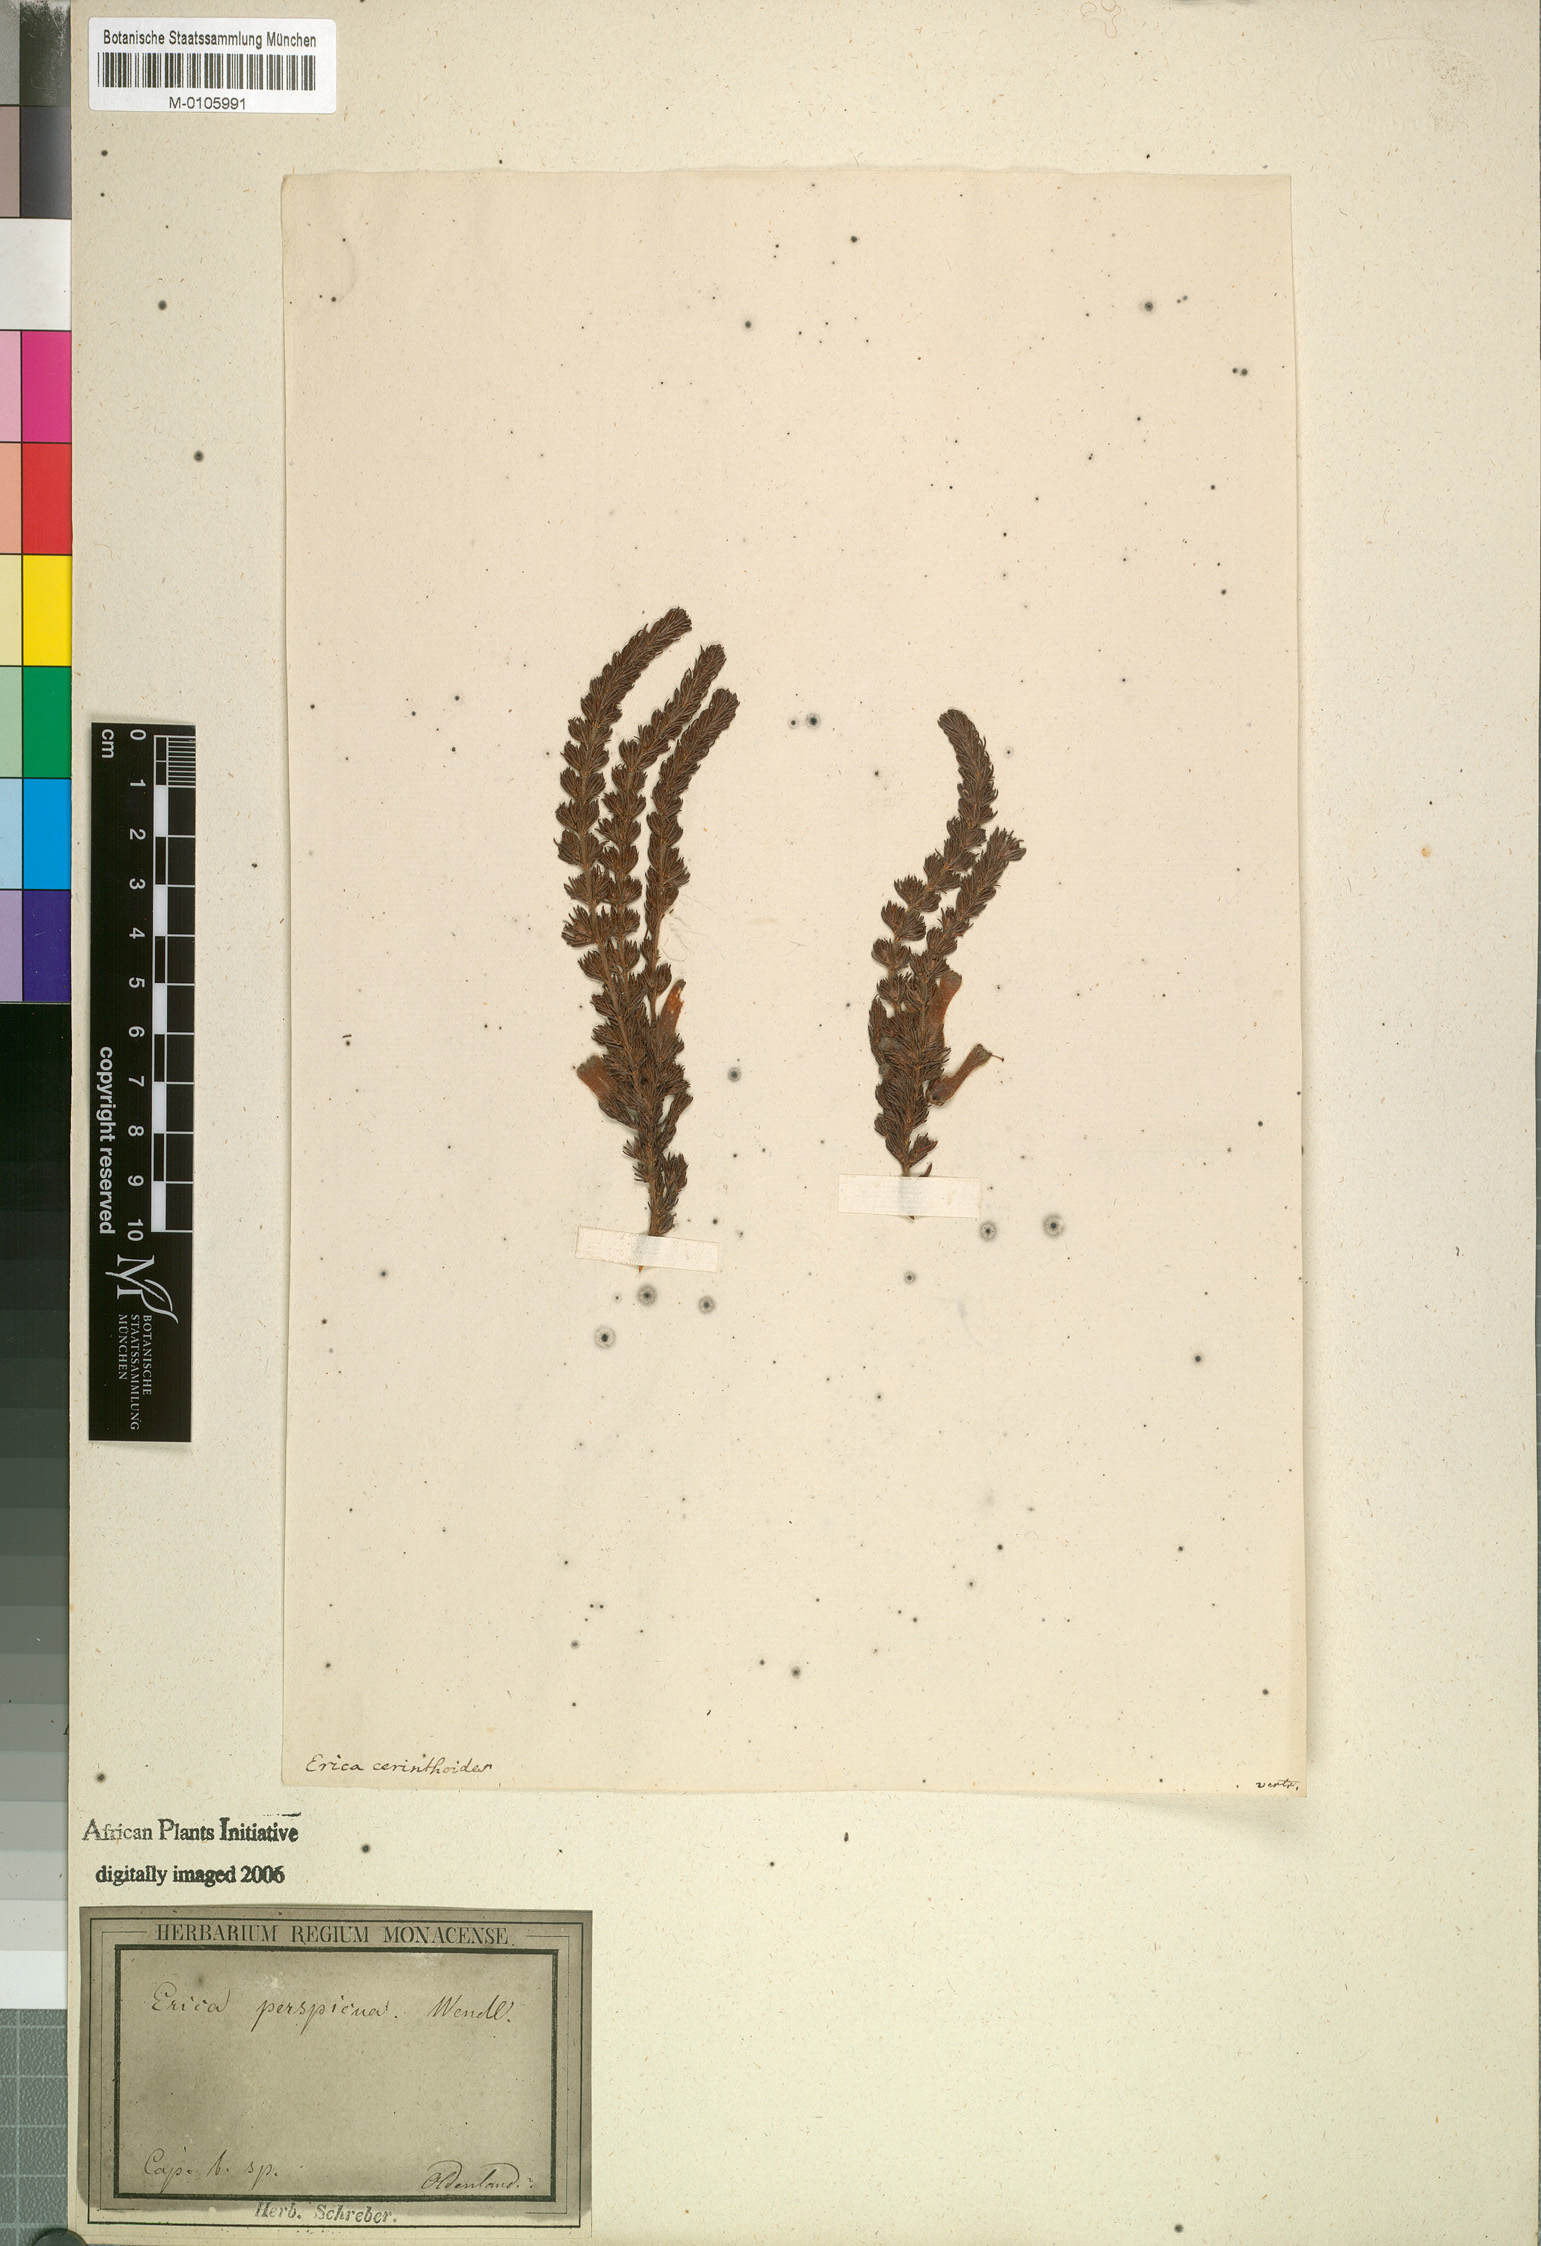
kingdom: Plantae
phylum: Tracheophyta
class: Magnoliopsida
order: Ericales
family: Ericaceae
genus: Erica
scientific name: Erica perspicua
